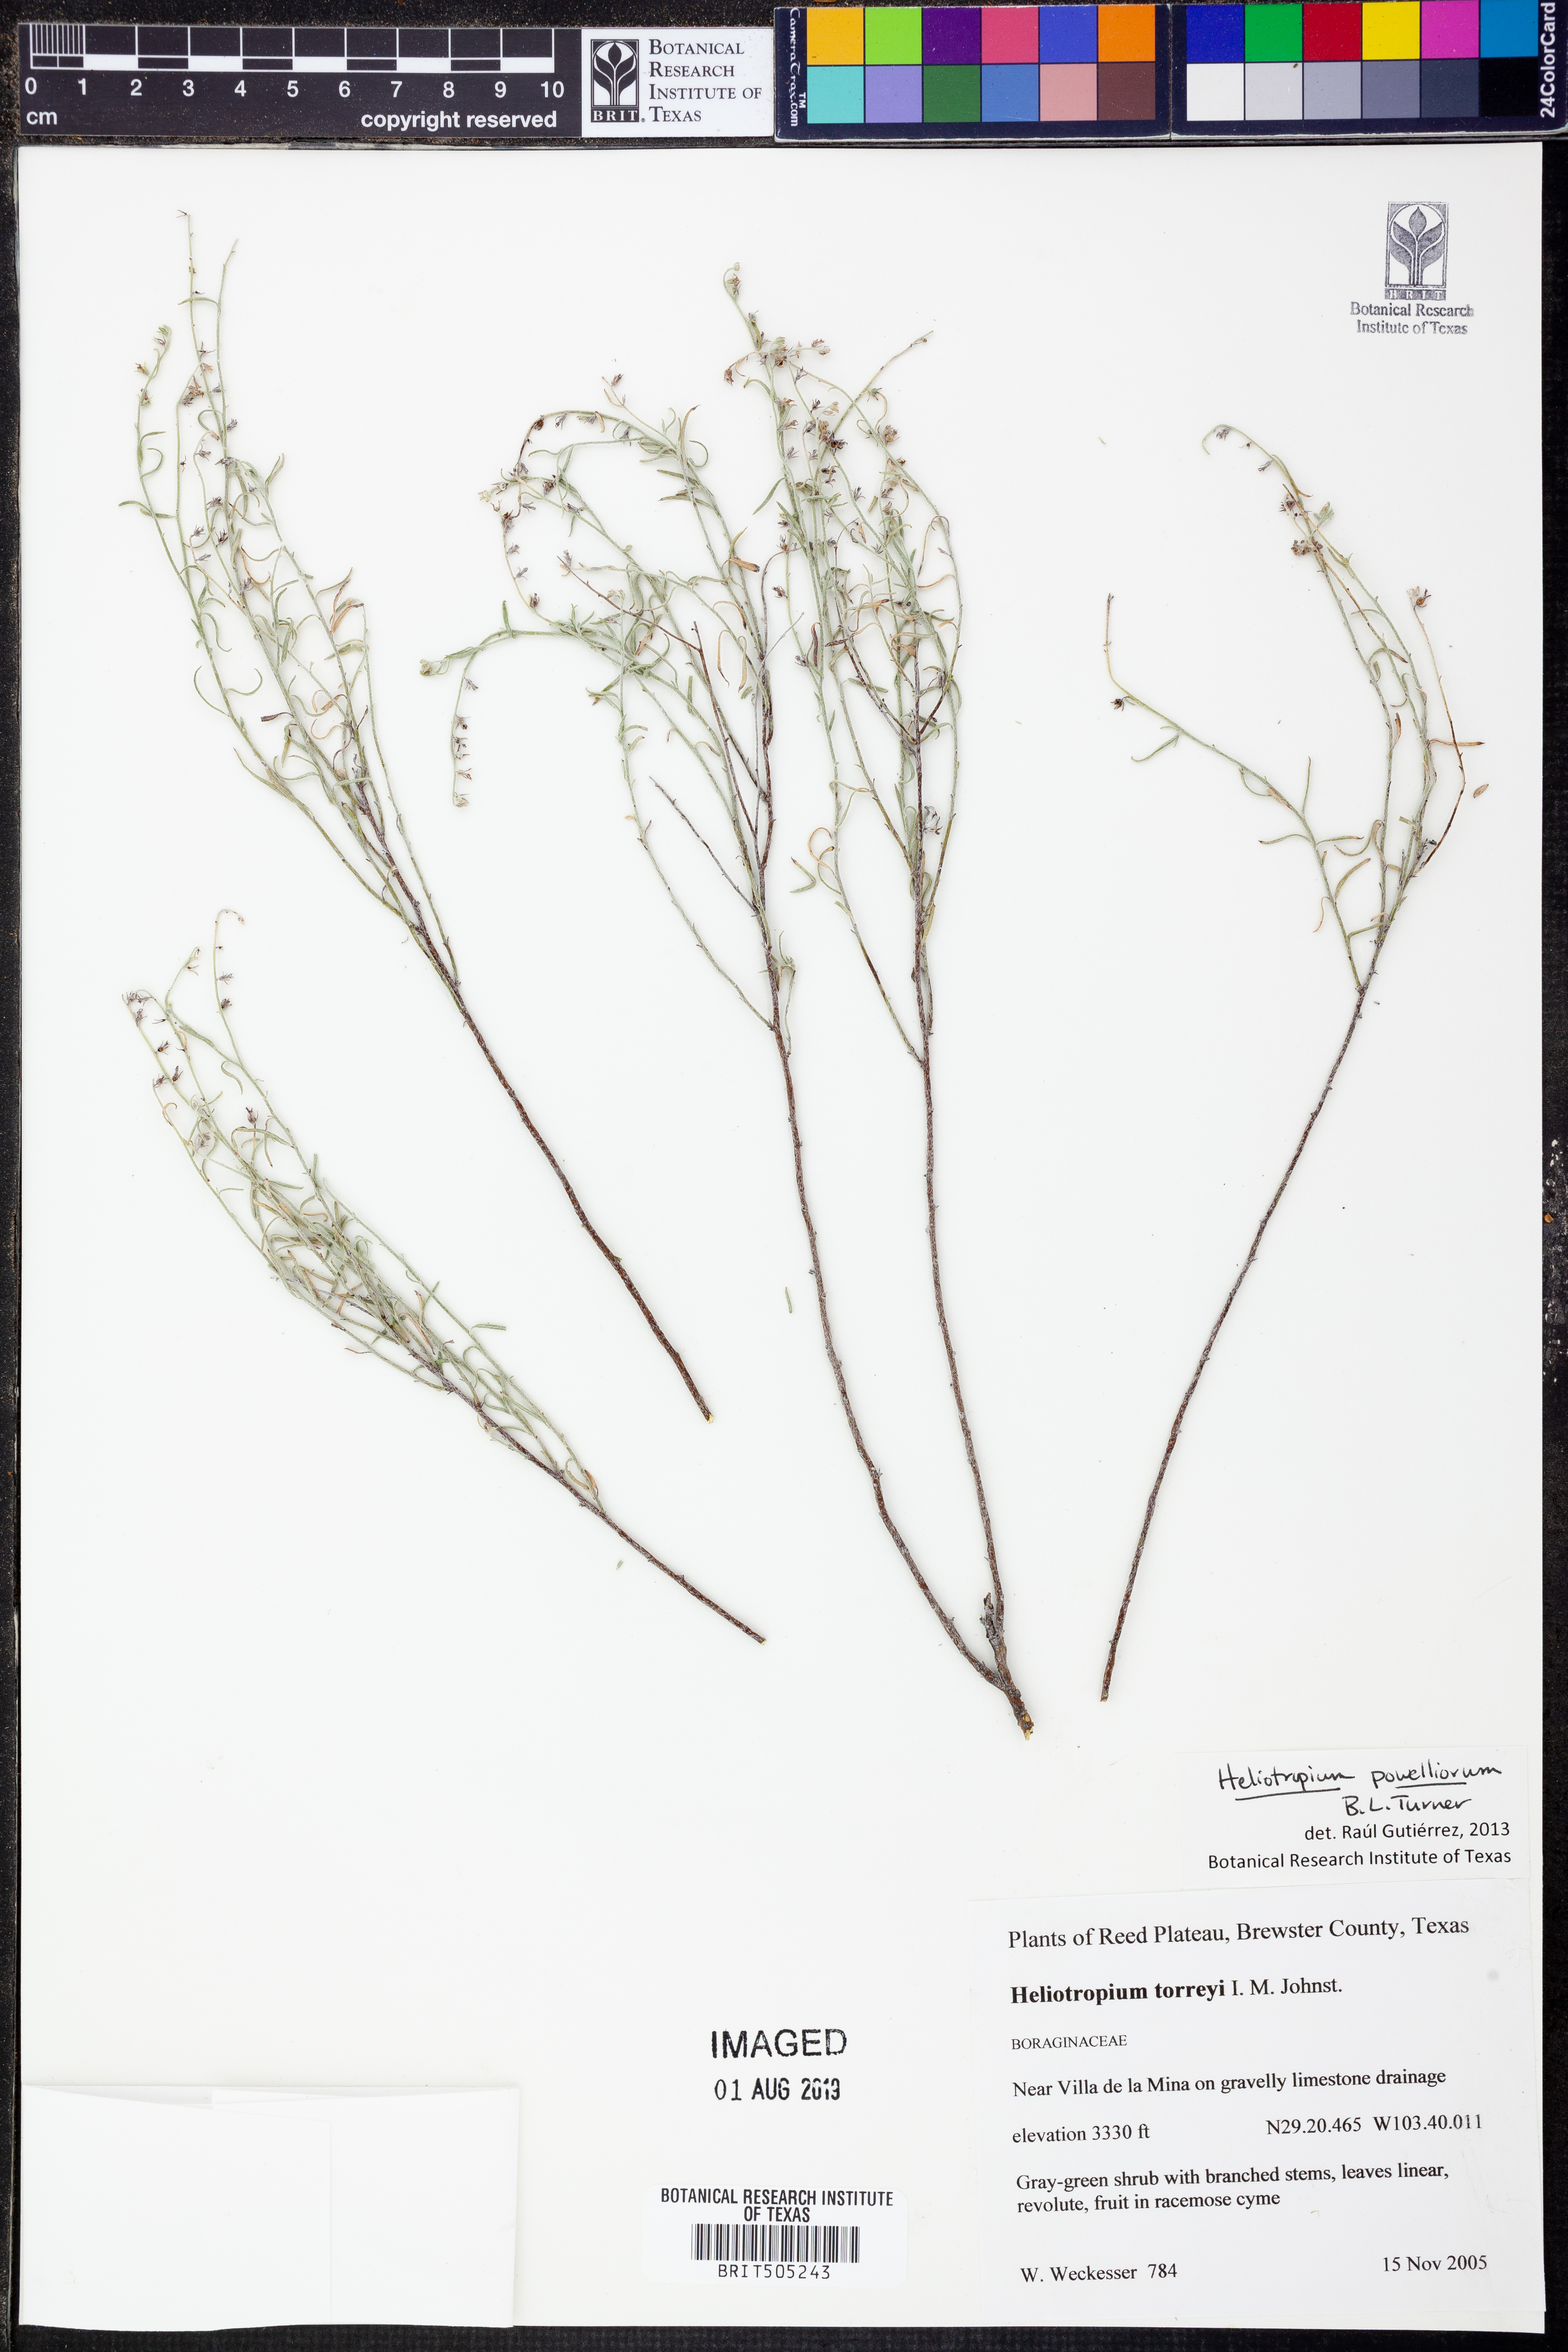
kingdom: Plantae
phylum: Tracheophyta
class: Magnoliopsida
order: Boraginales
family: Heliotropiaceae
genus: Euploca
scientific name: Euploca powelliorum
